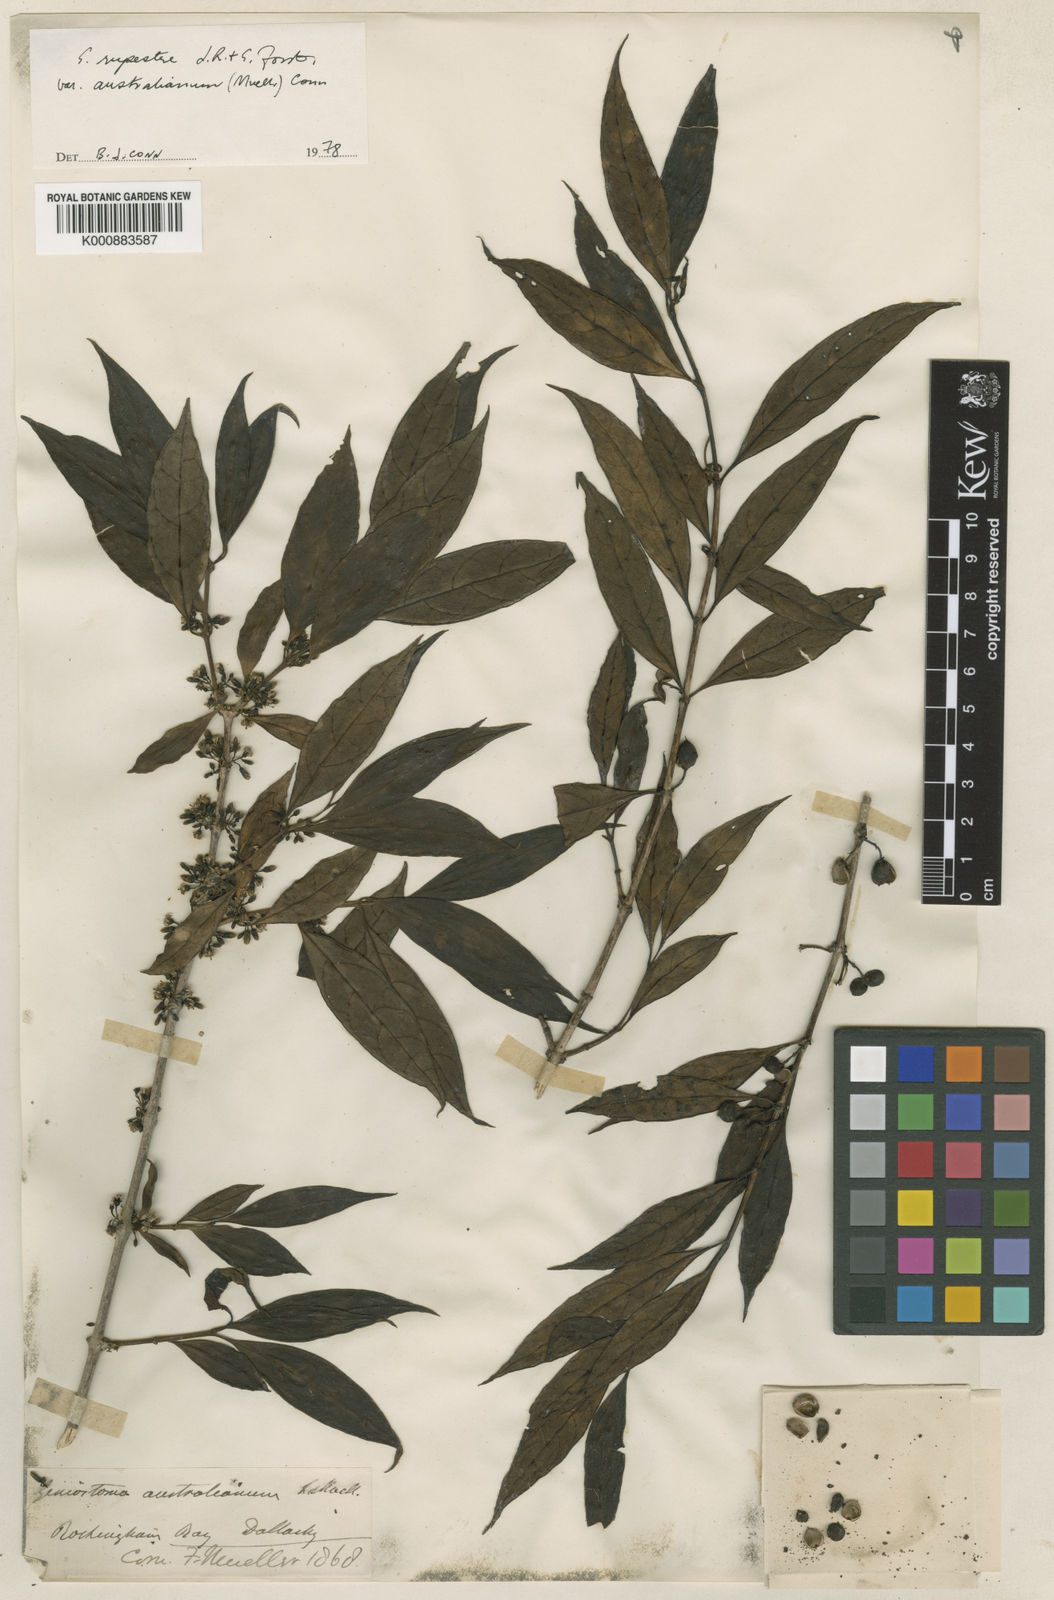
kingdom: Plantae
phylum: Tracheophyta
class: Magnoliopsida
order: Gentianales
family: Loganiaceae
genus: Geniostoma
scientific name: Geniostoma rupestre
